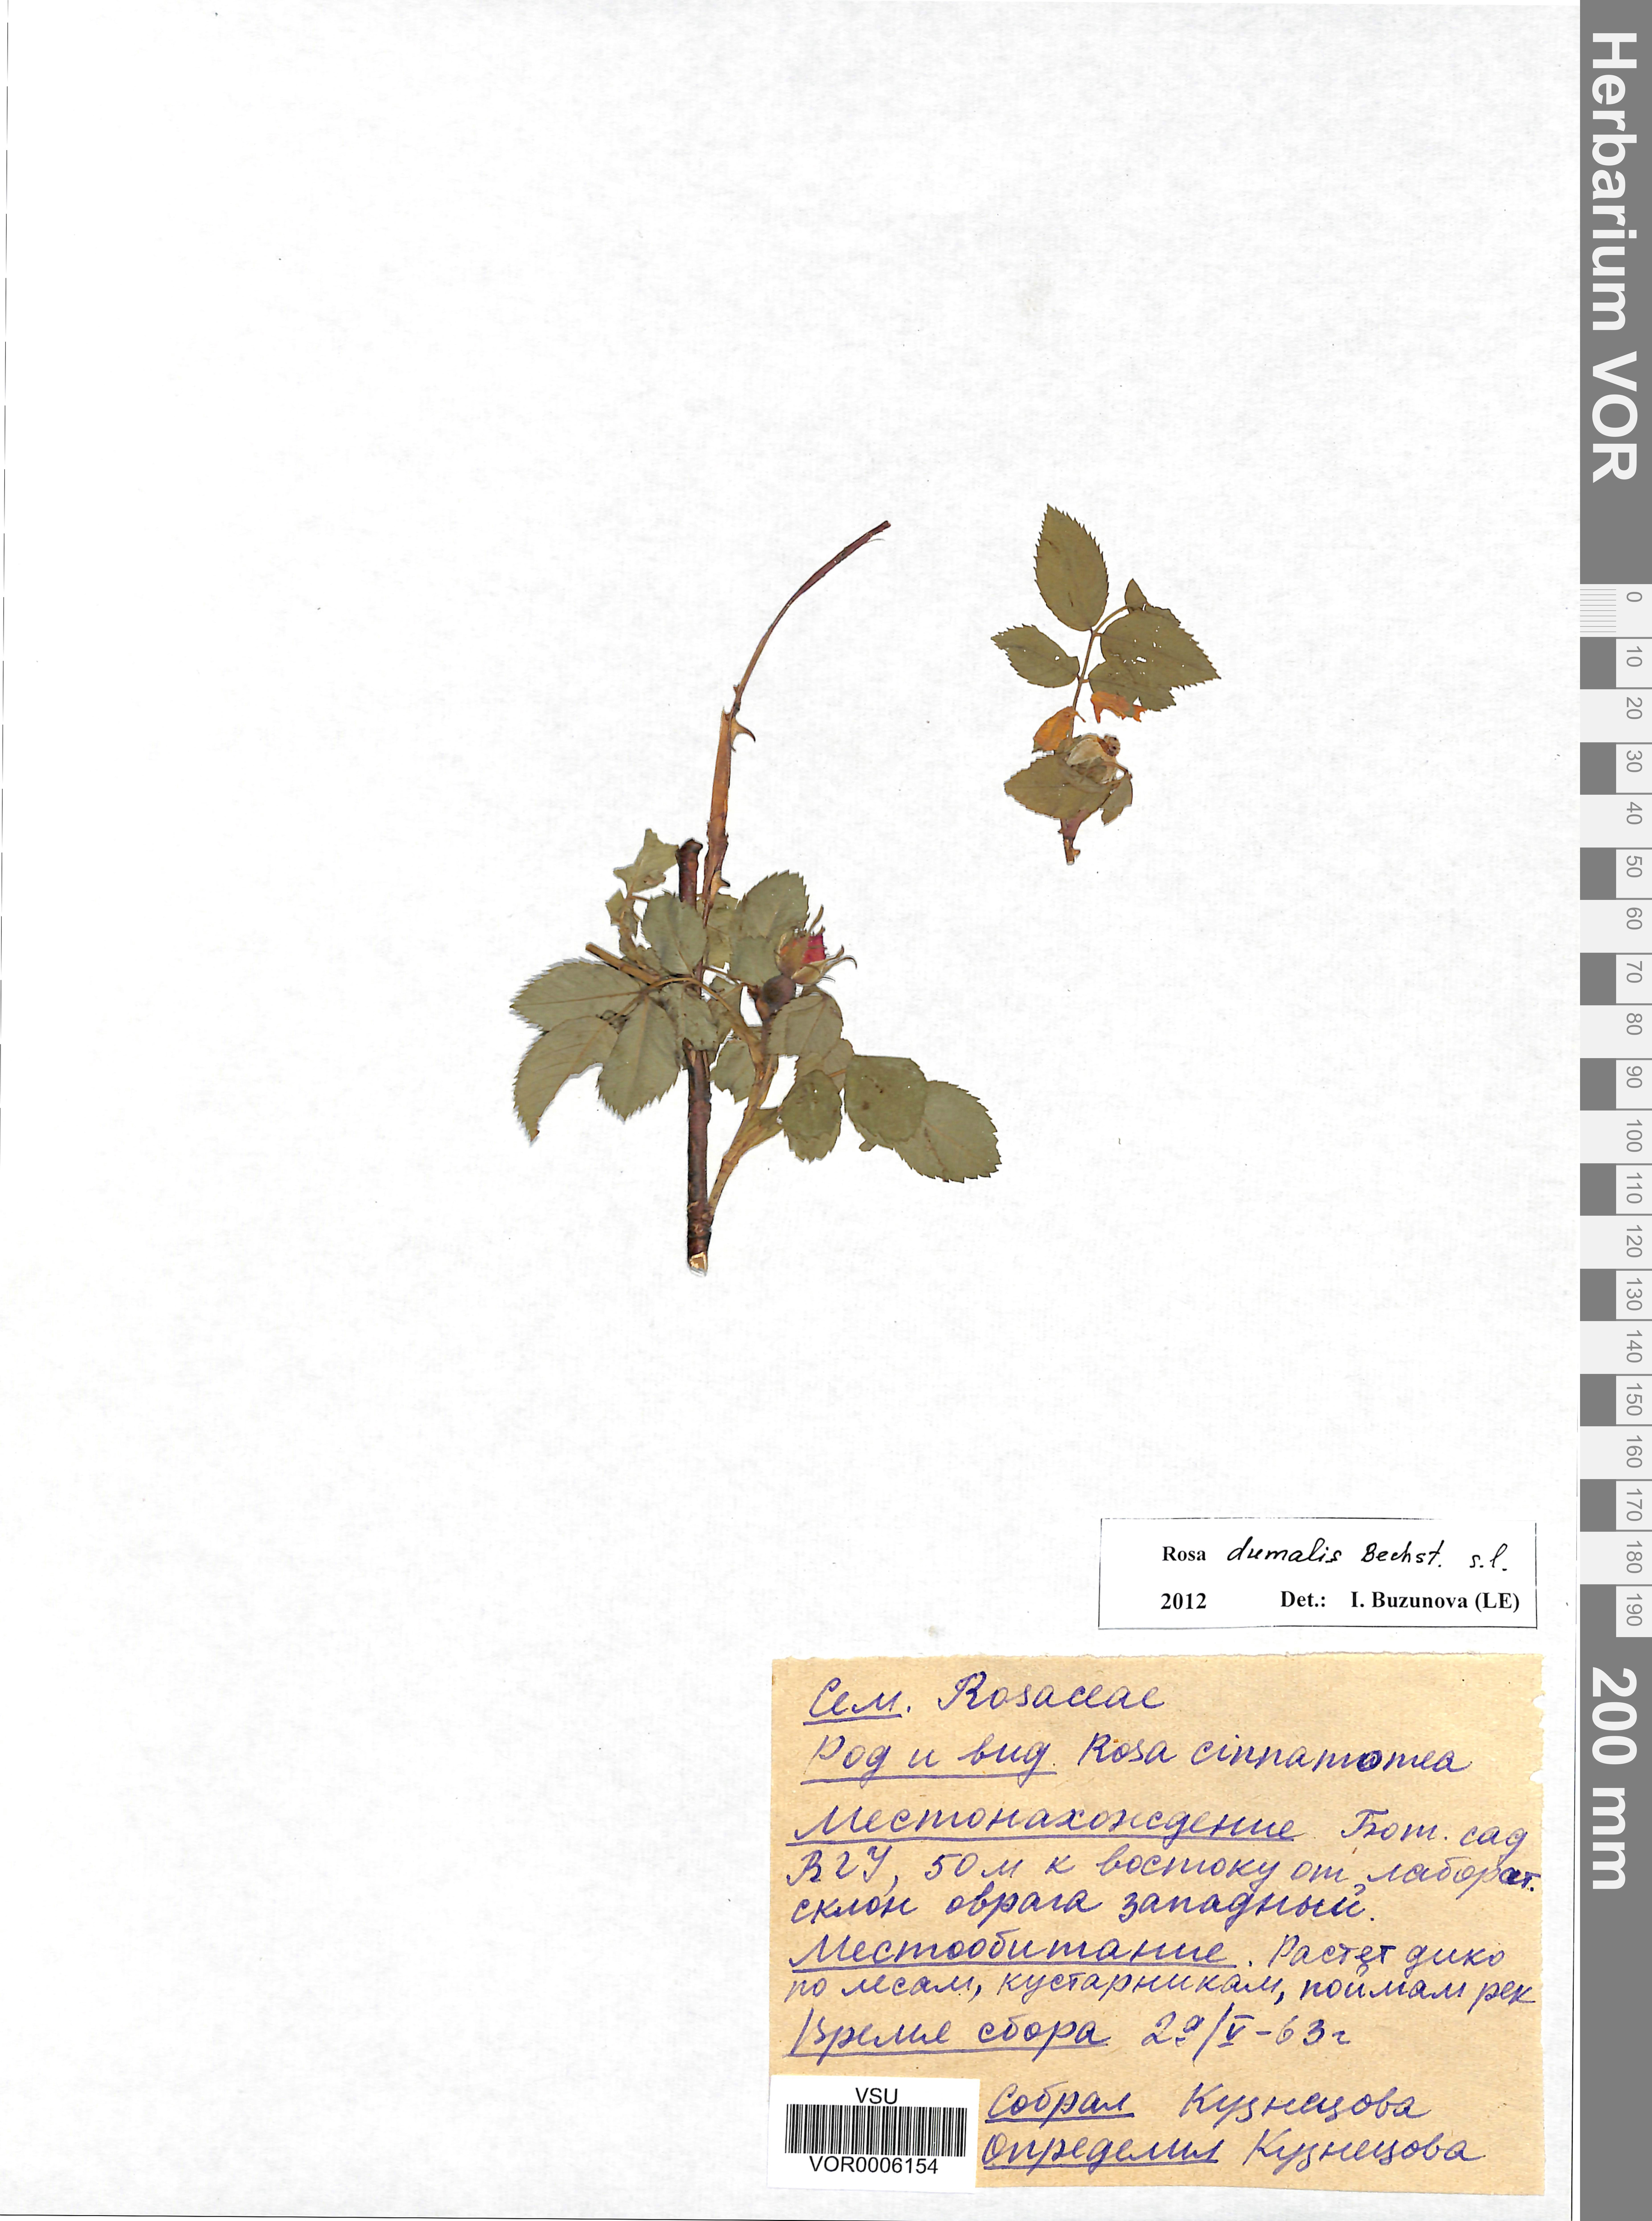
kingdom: Plantae
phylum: Tracheophyta
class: Magnoliopsida
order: Rosales
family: Rosaceae
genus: Rosa
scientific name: Rosa dumalis
